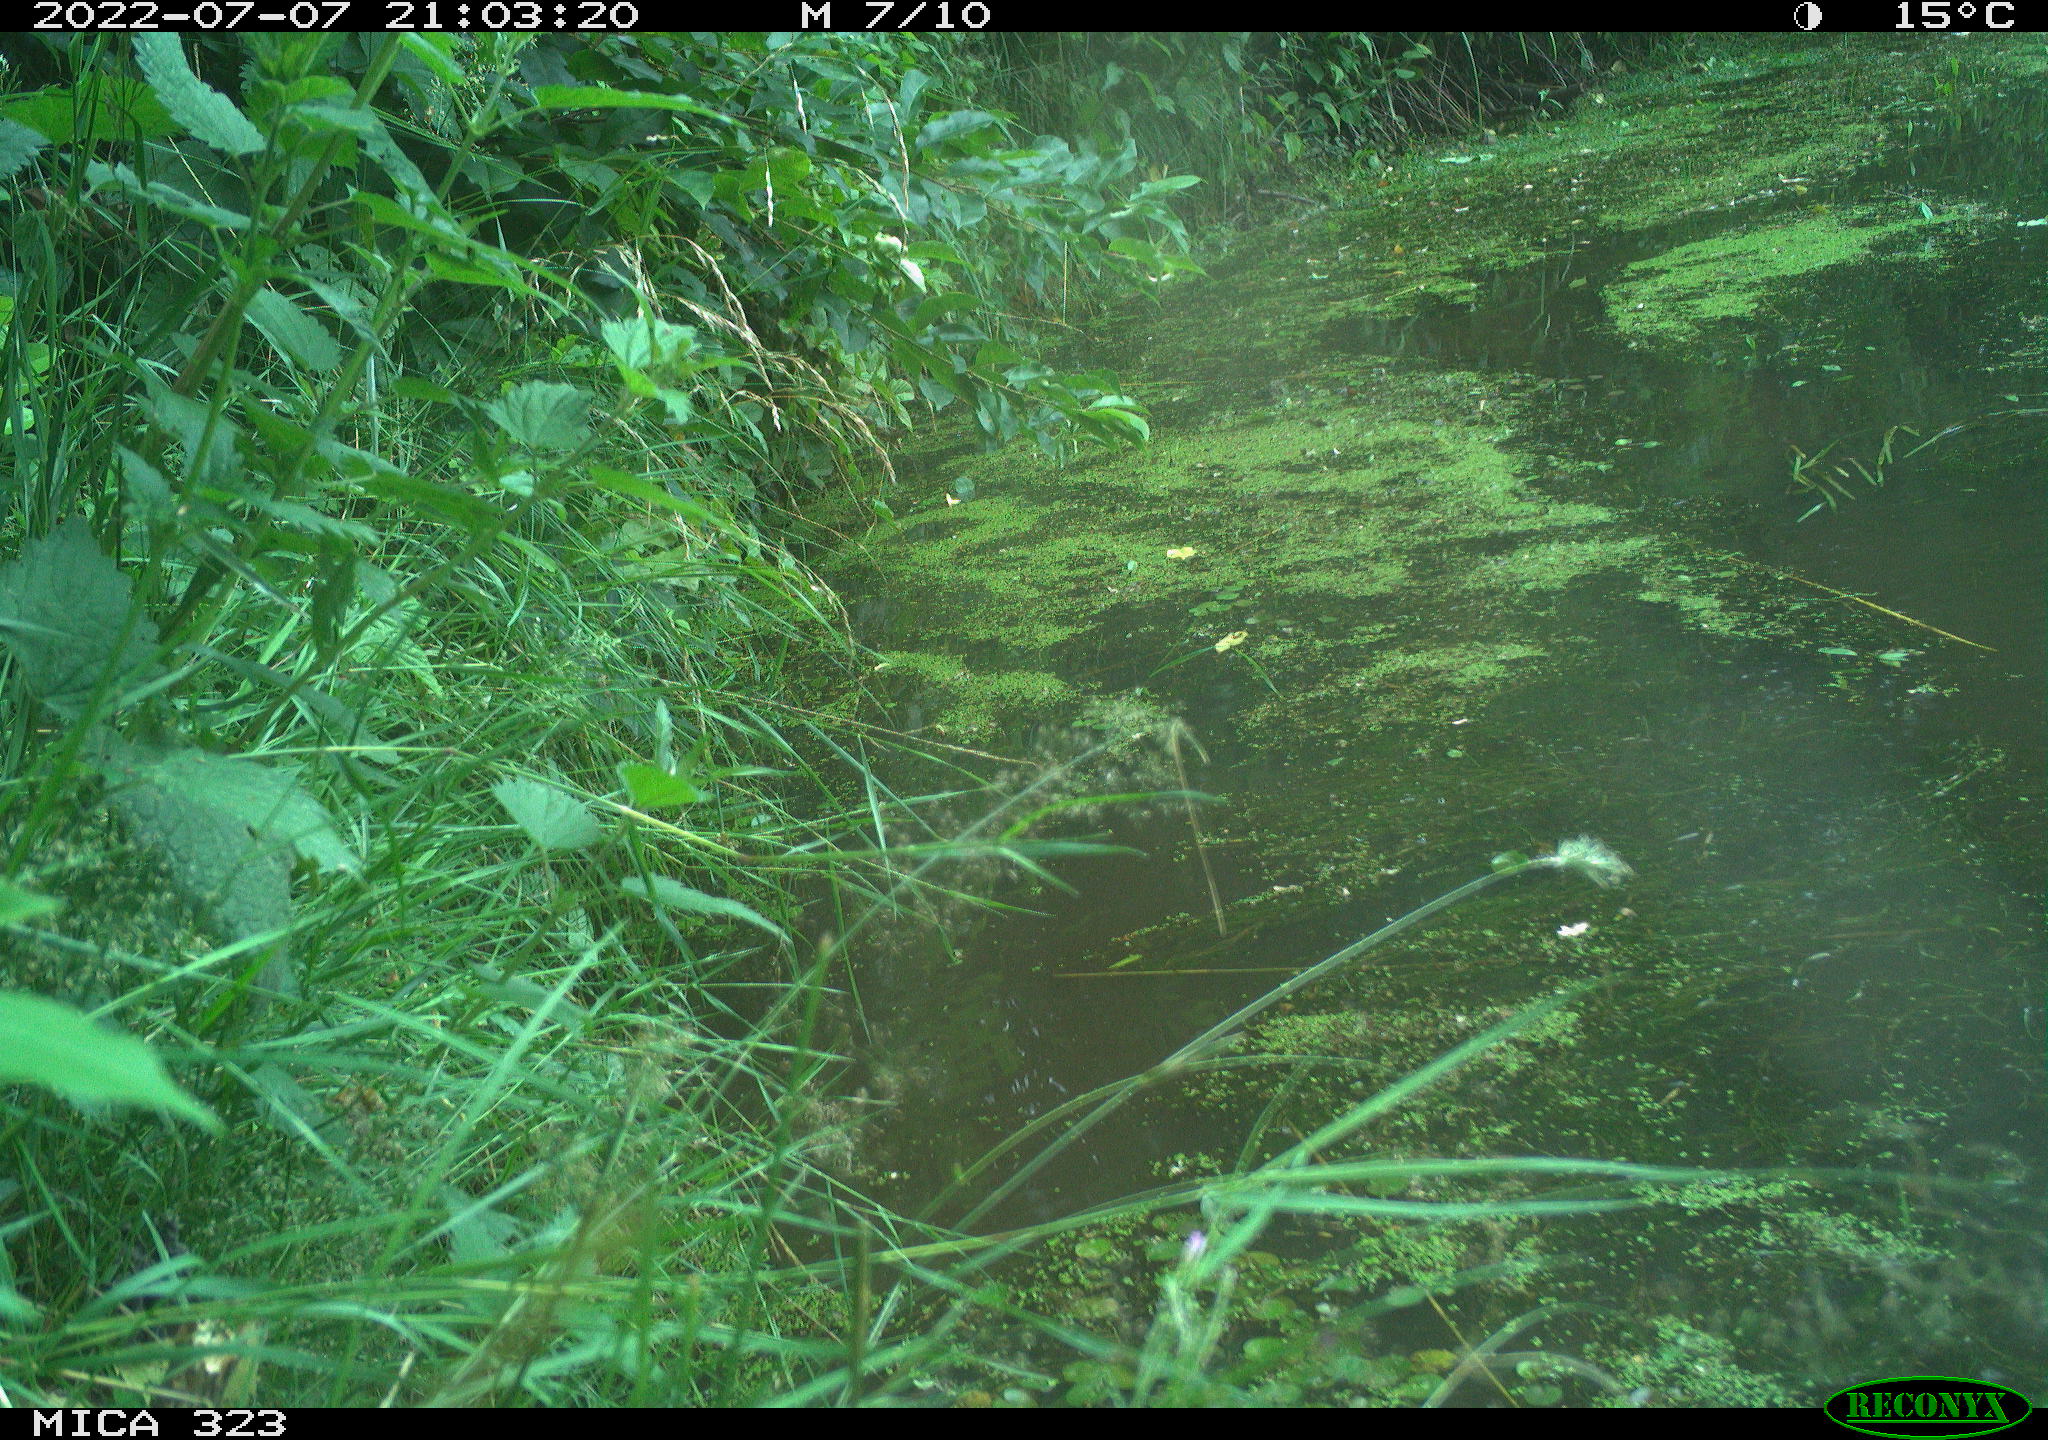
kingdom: Animalia
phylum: Chordata
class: Aves
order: Anseriformes
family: Anatidae
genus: Anas
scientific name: Anas
